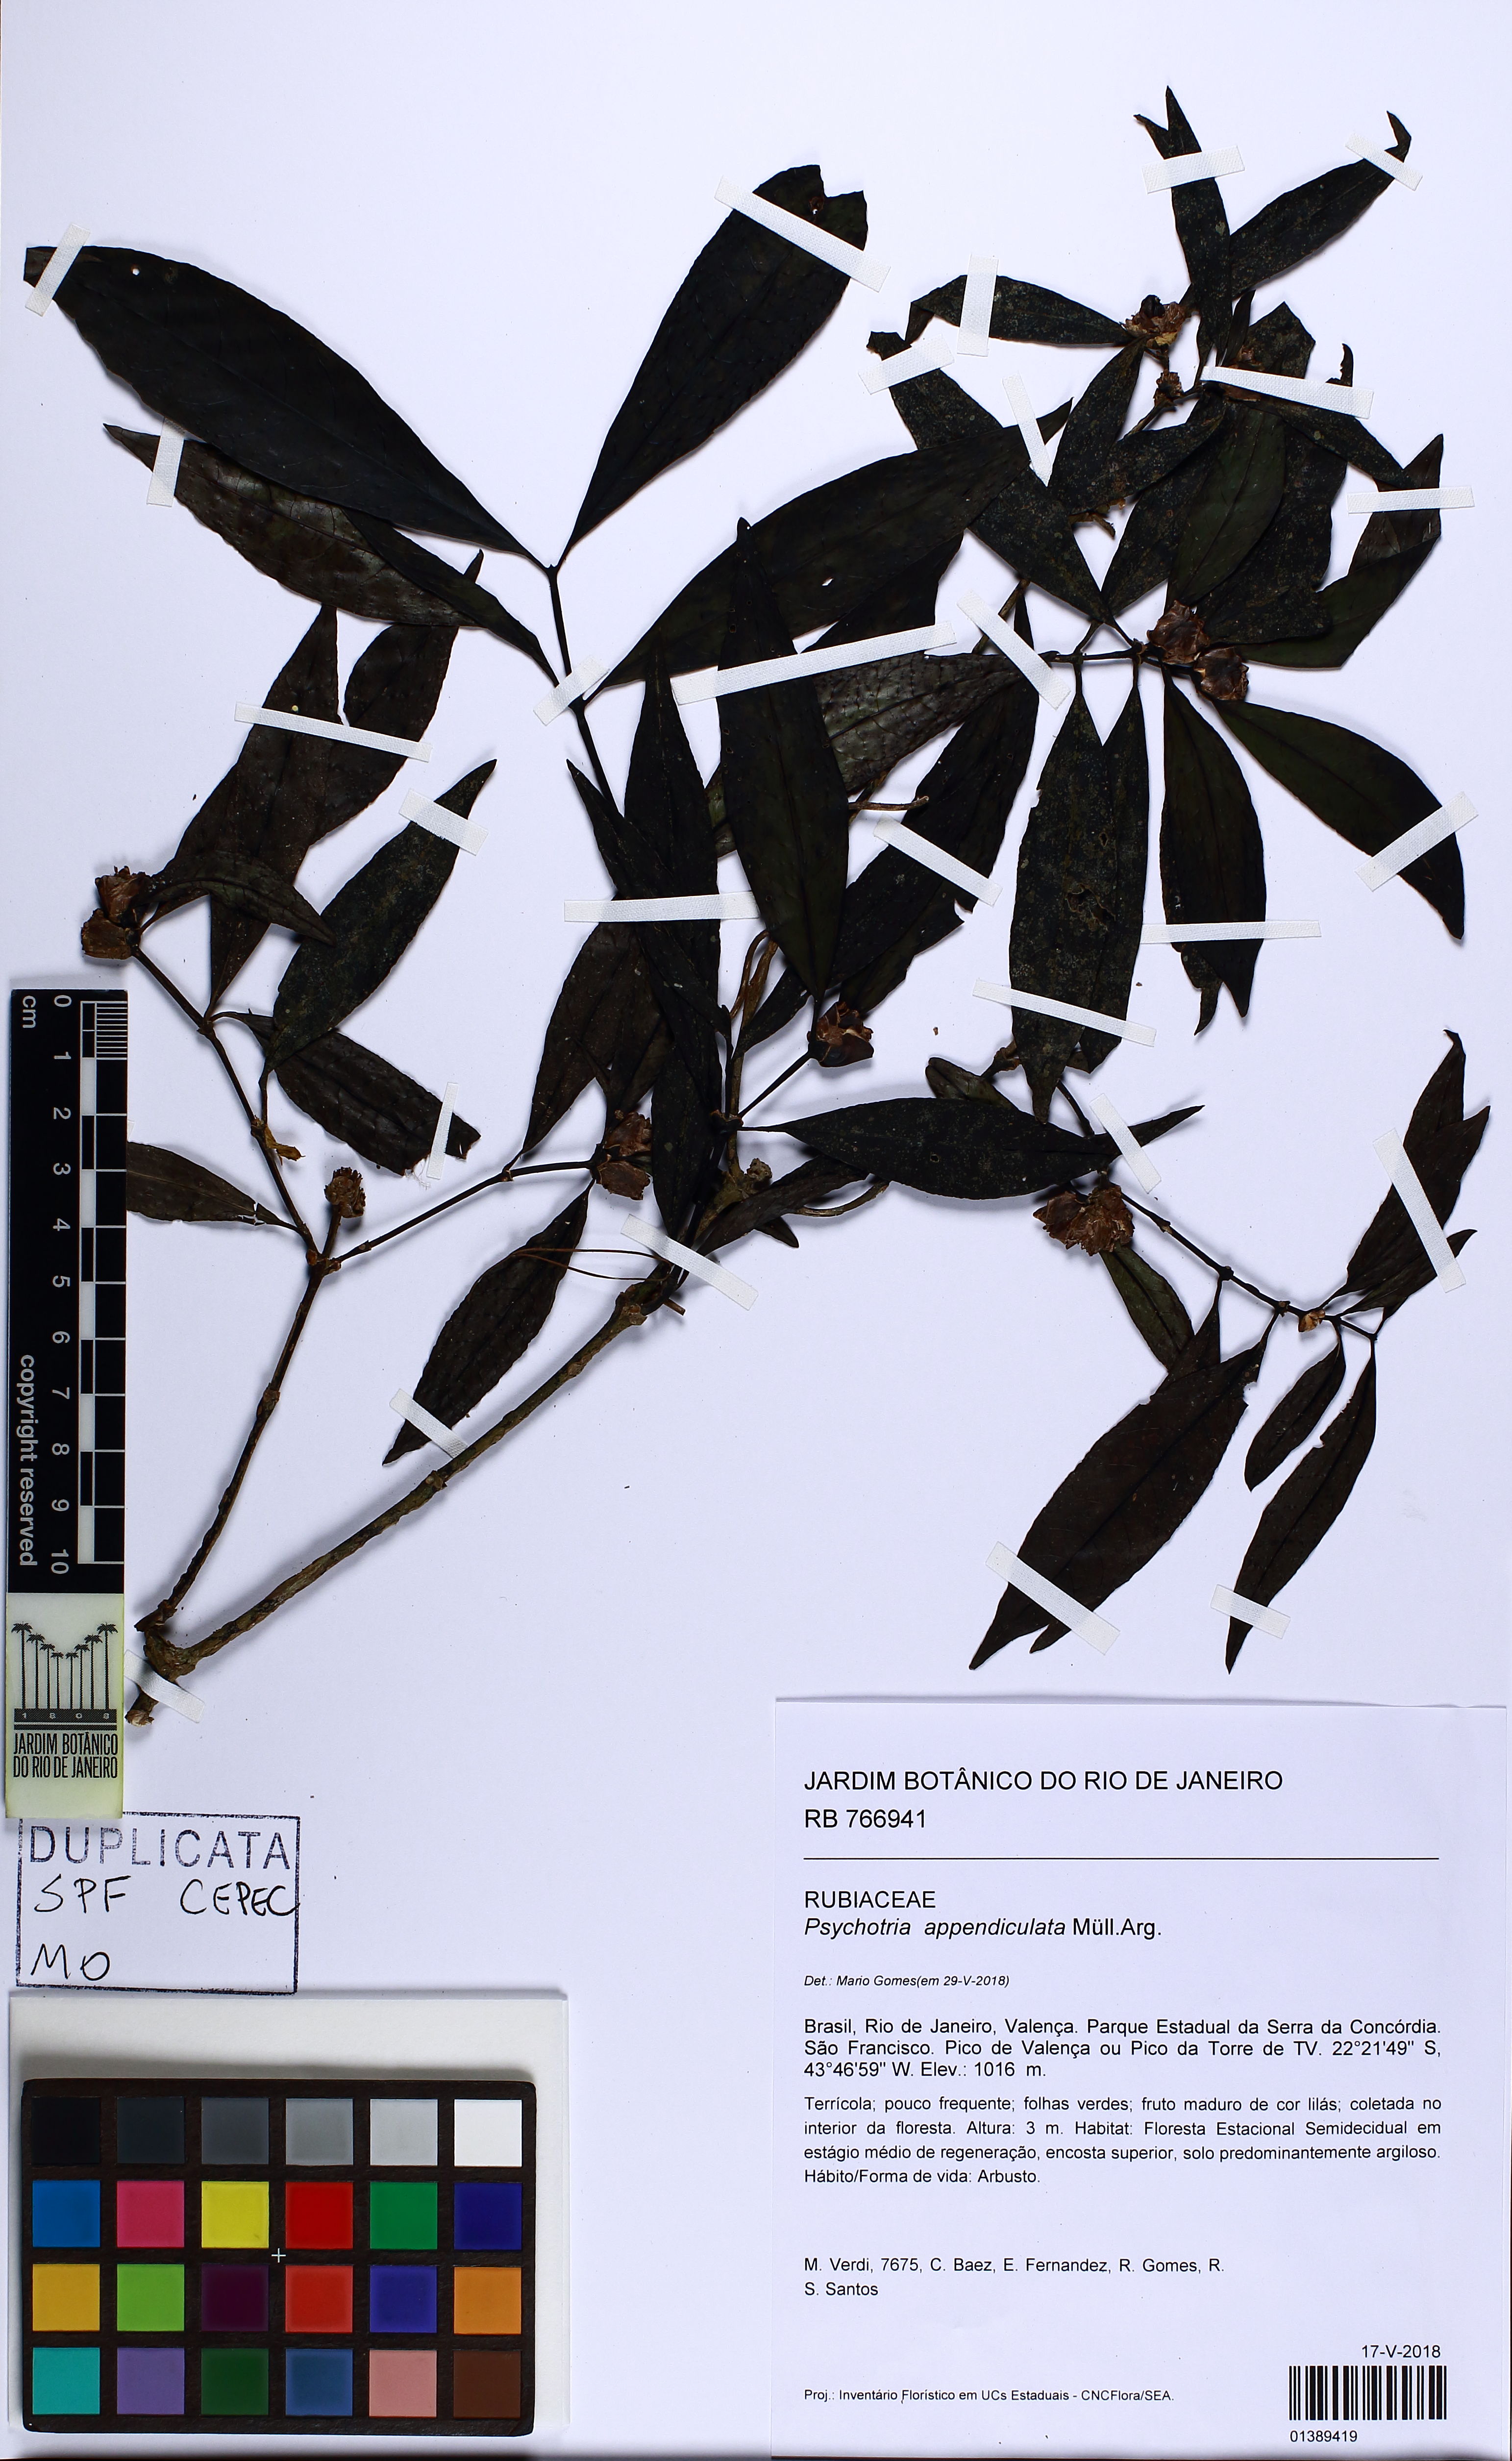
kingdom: Plantae
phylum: Tracheophyta
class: Magnoliopsida
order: Gentianales
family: Rubiaceae
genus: Psychotria
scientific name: Psychotria appendiculata
